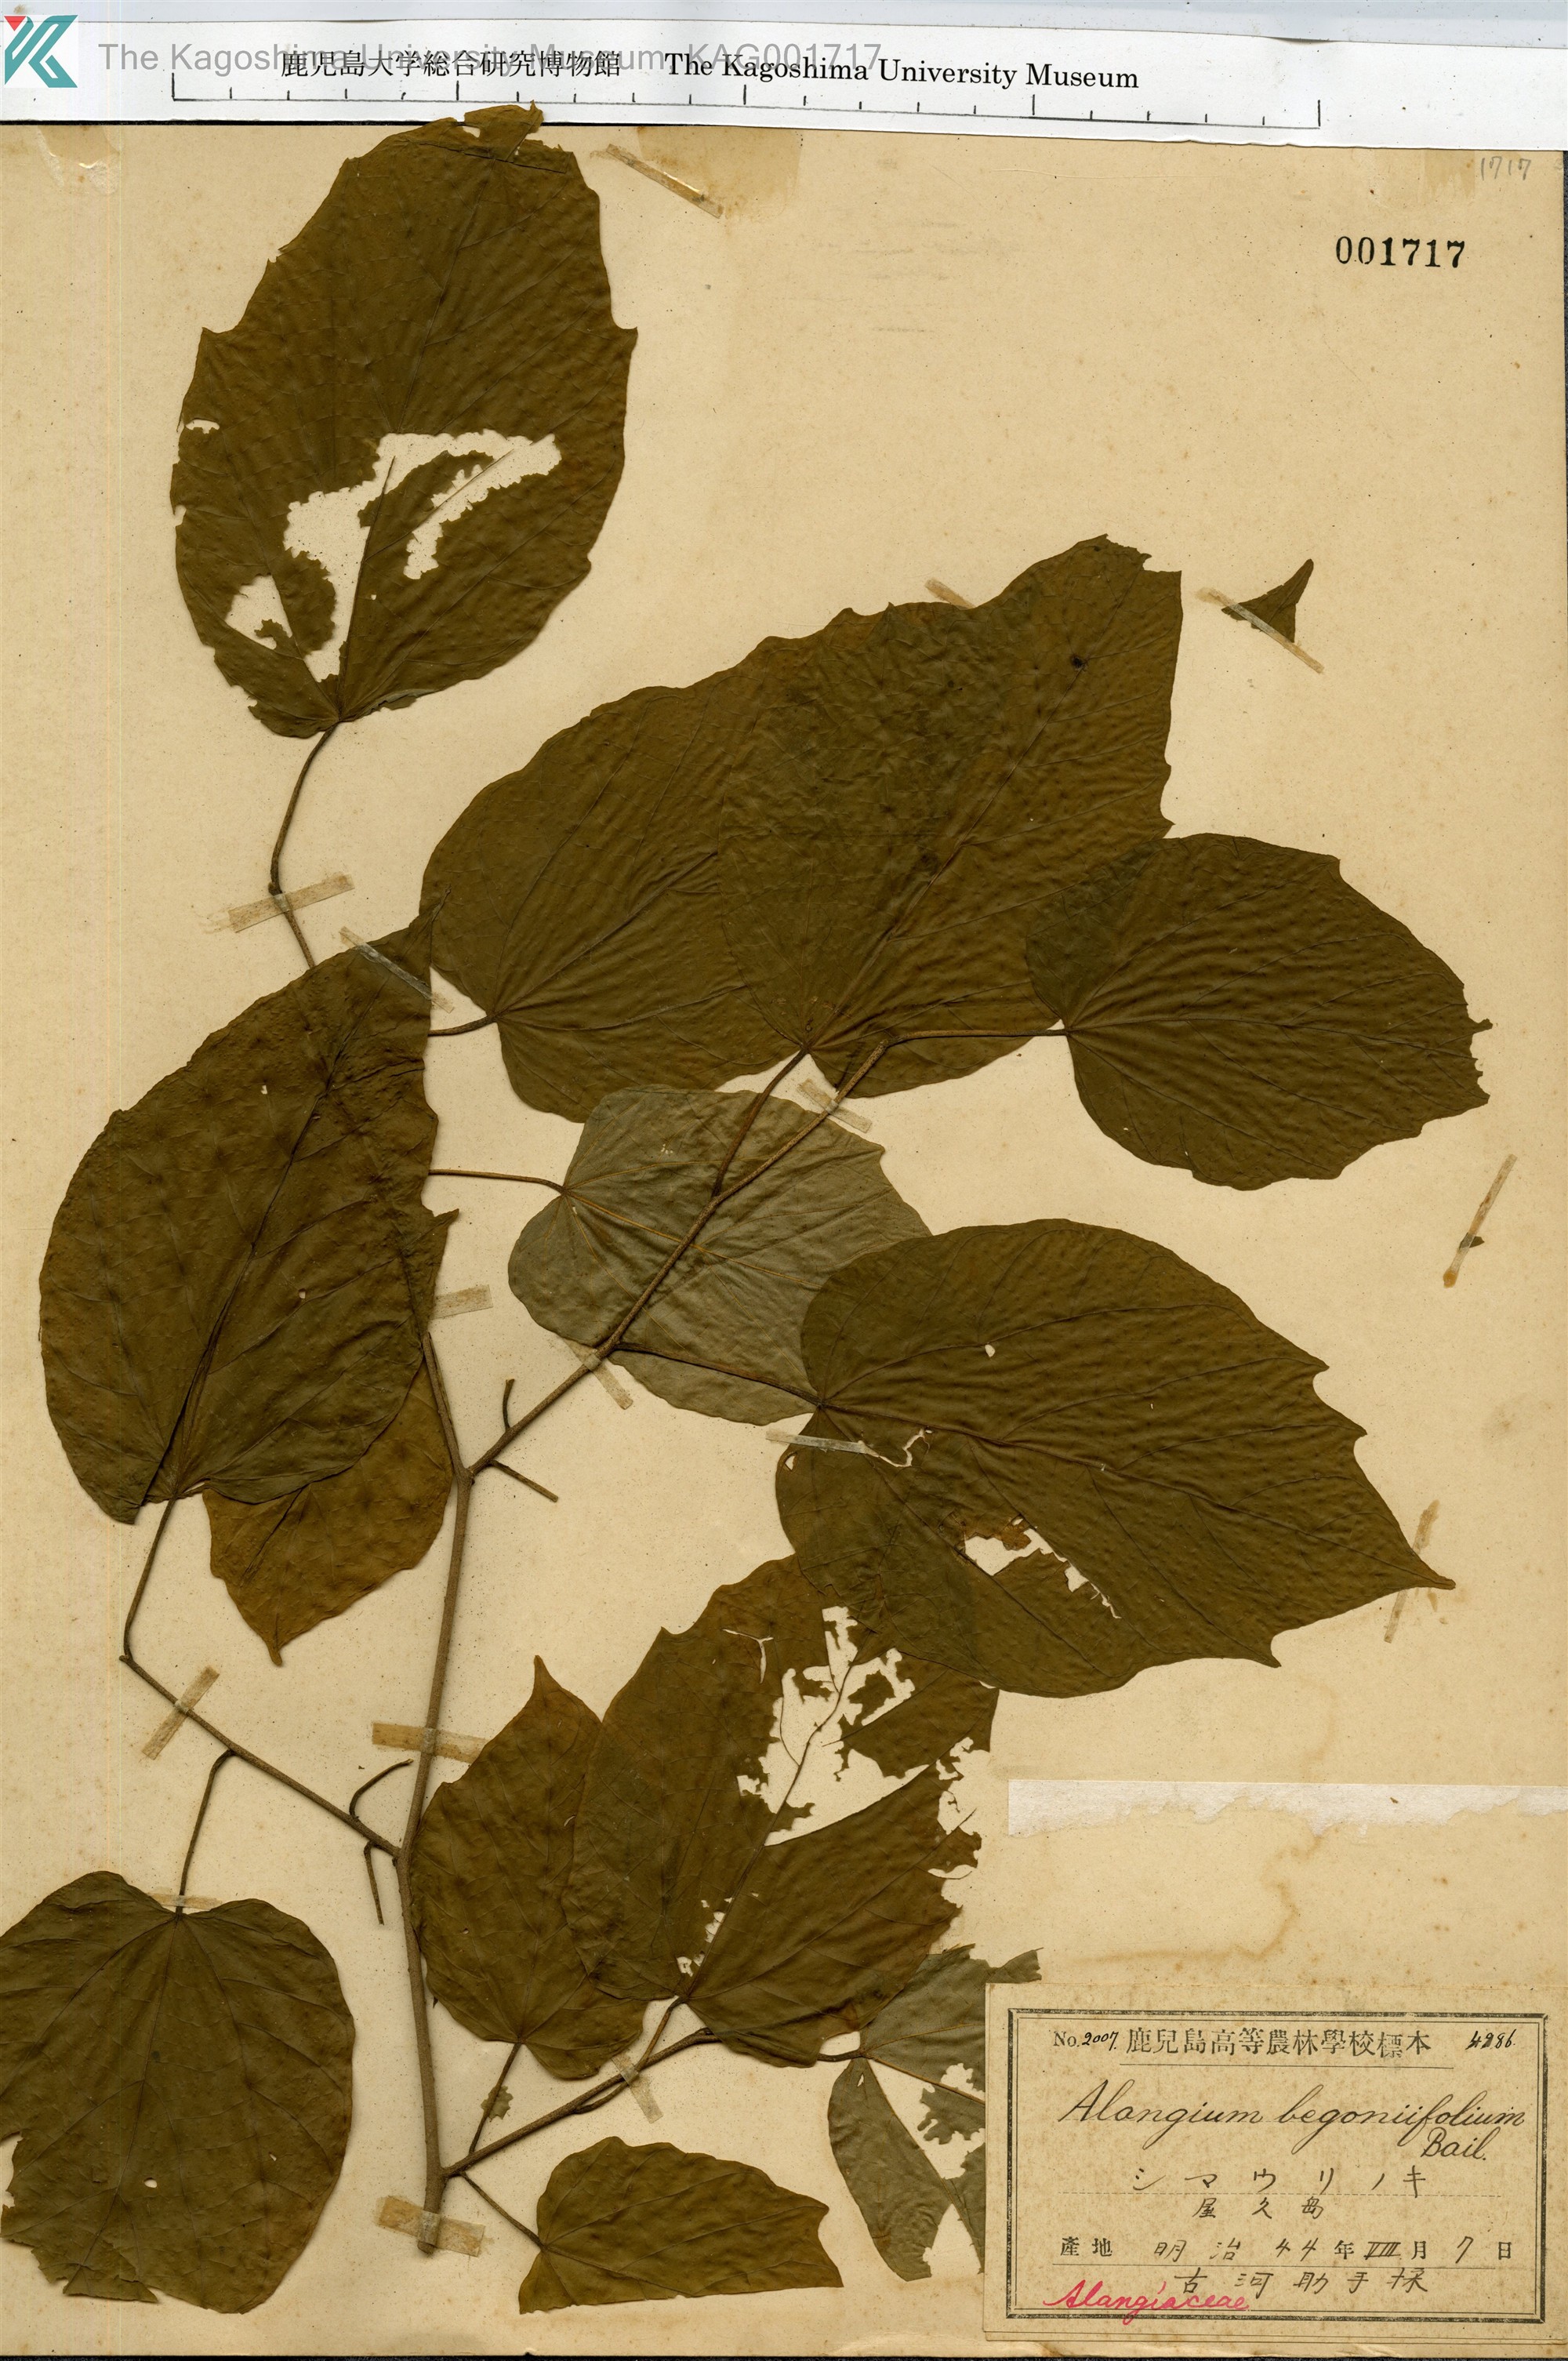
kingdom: Plantae
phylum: Tracheophyta
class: Magnoliopsida
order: Cornales
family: Cornaceae
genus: Alangium
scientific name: Alangium premnifolium
